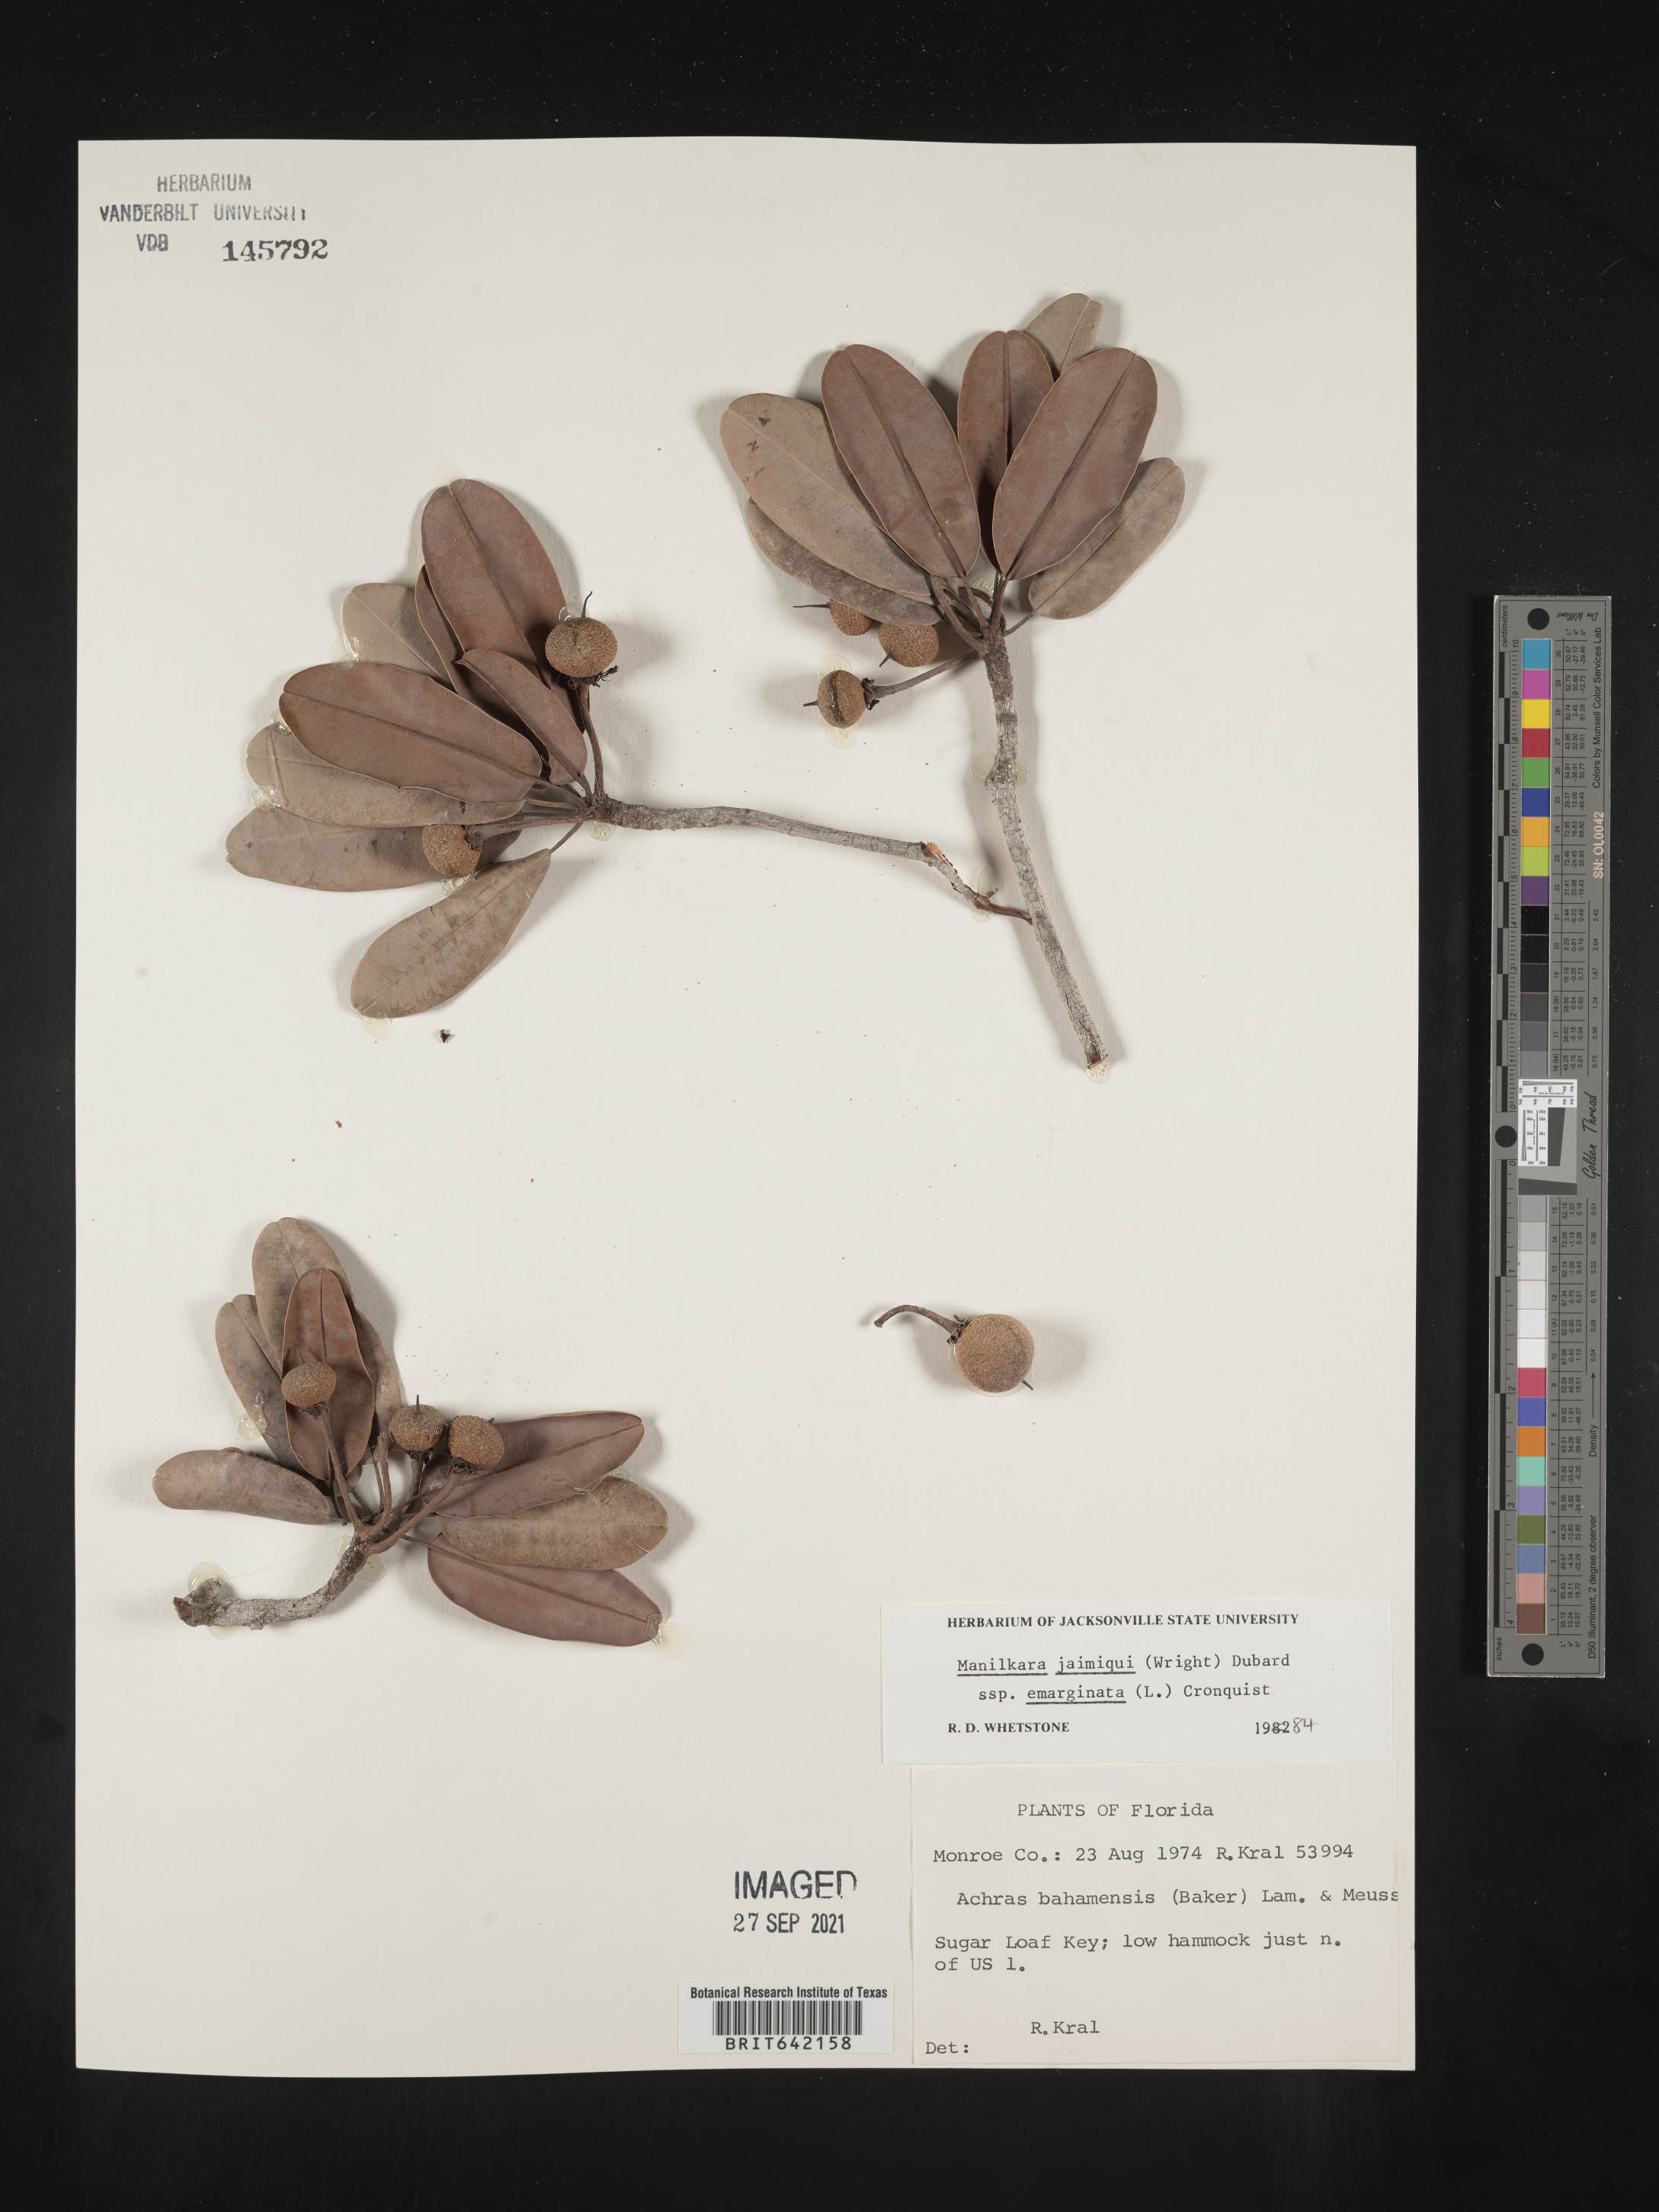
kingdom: Plantae
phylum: Tracheophyta
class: Magnoliopsida
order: Ericales
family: Sapotaceae
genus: Manilkara
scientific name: Manilkara jaimiqui
